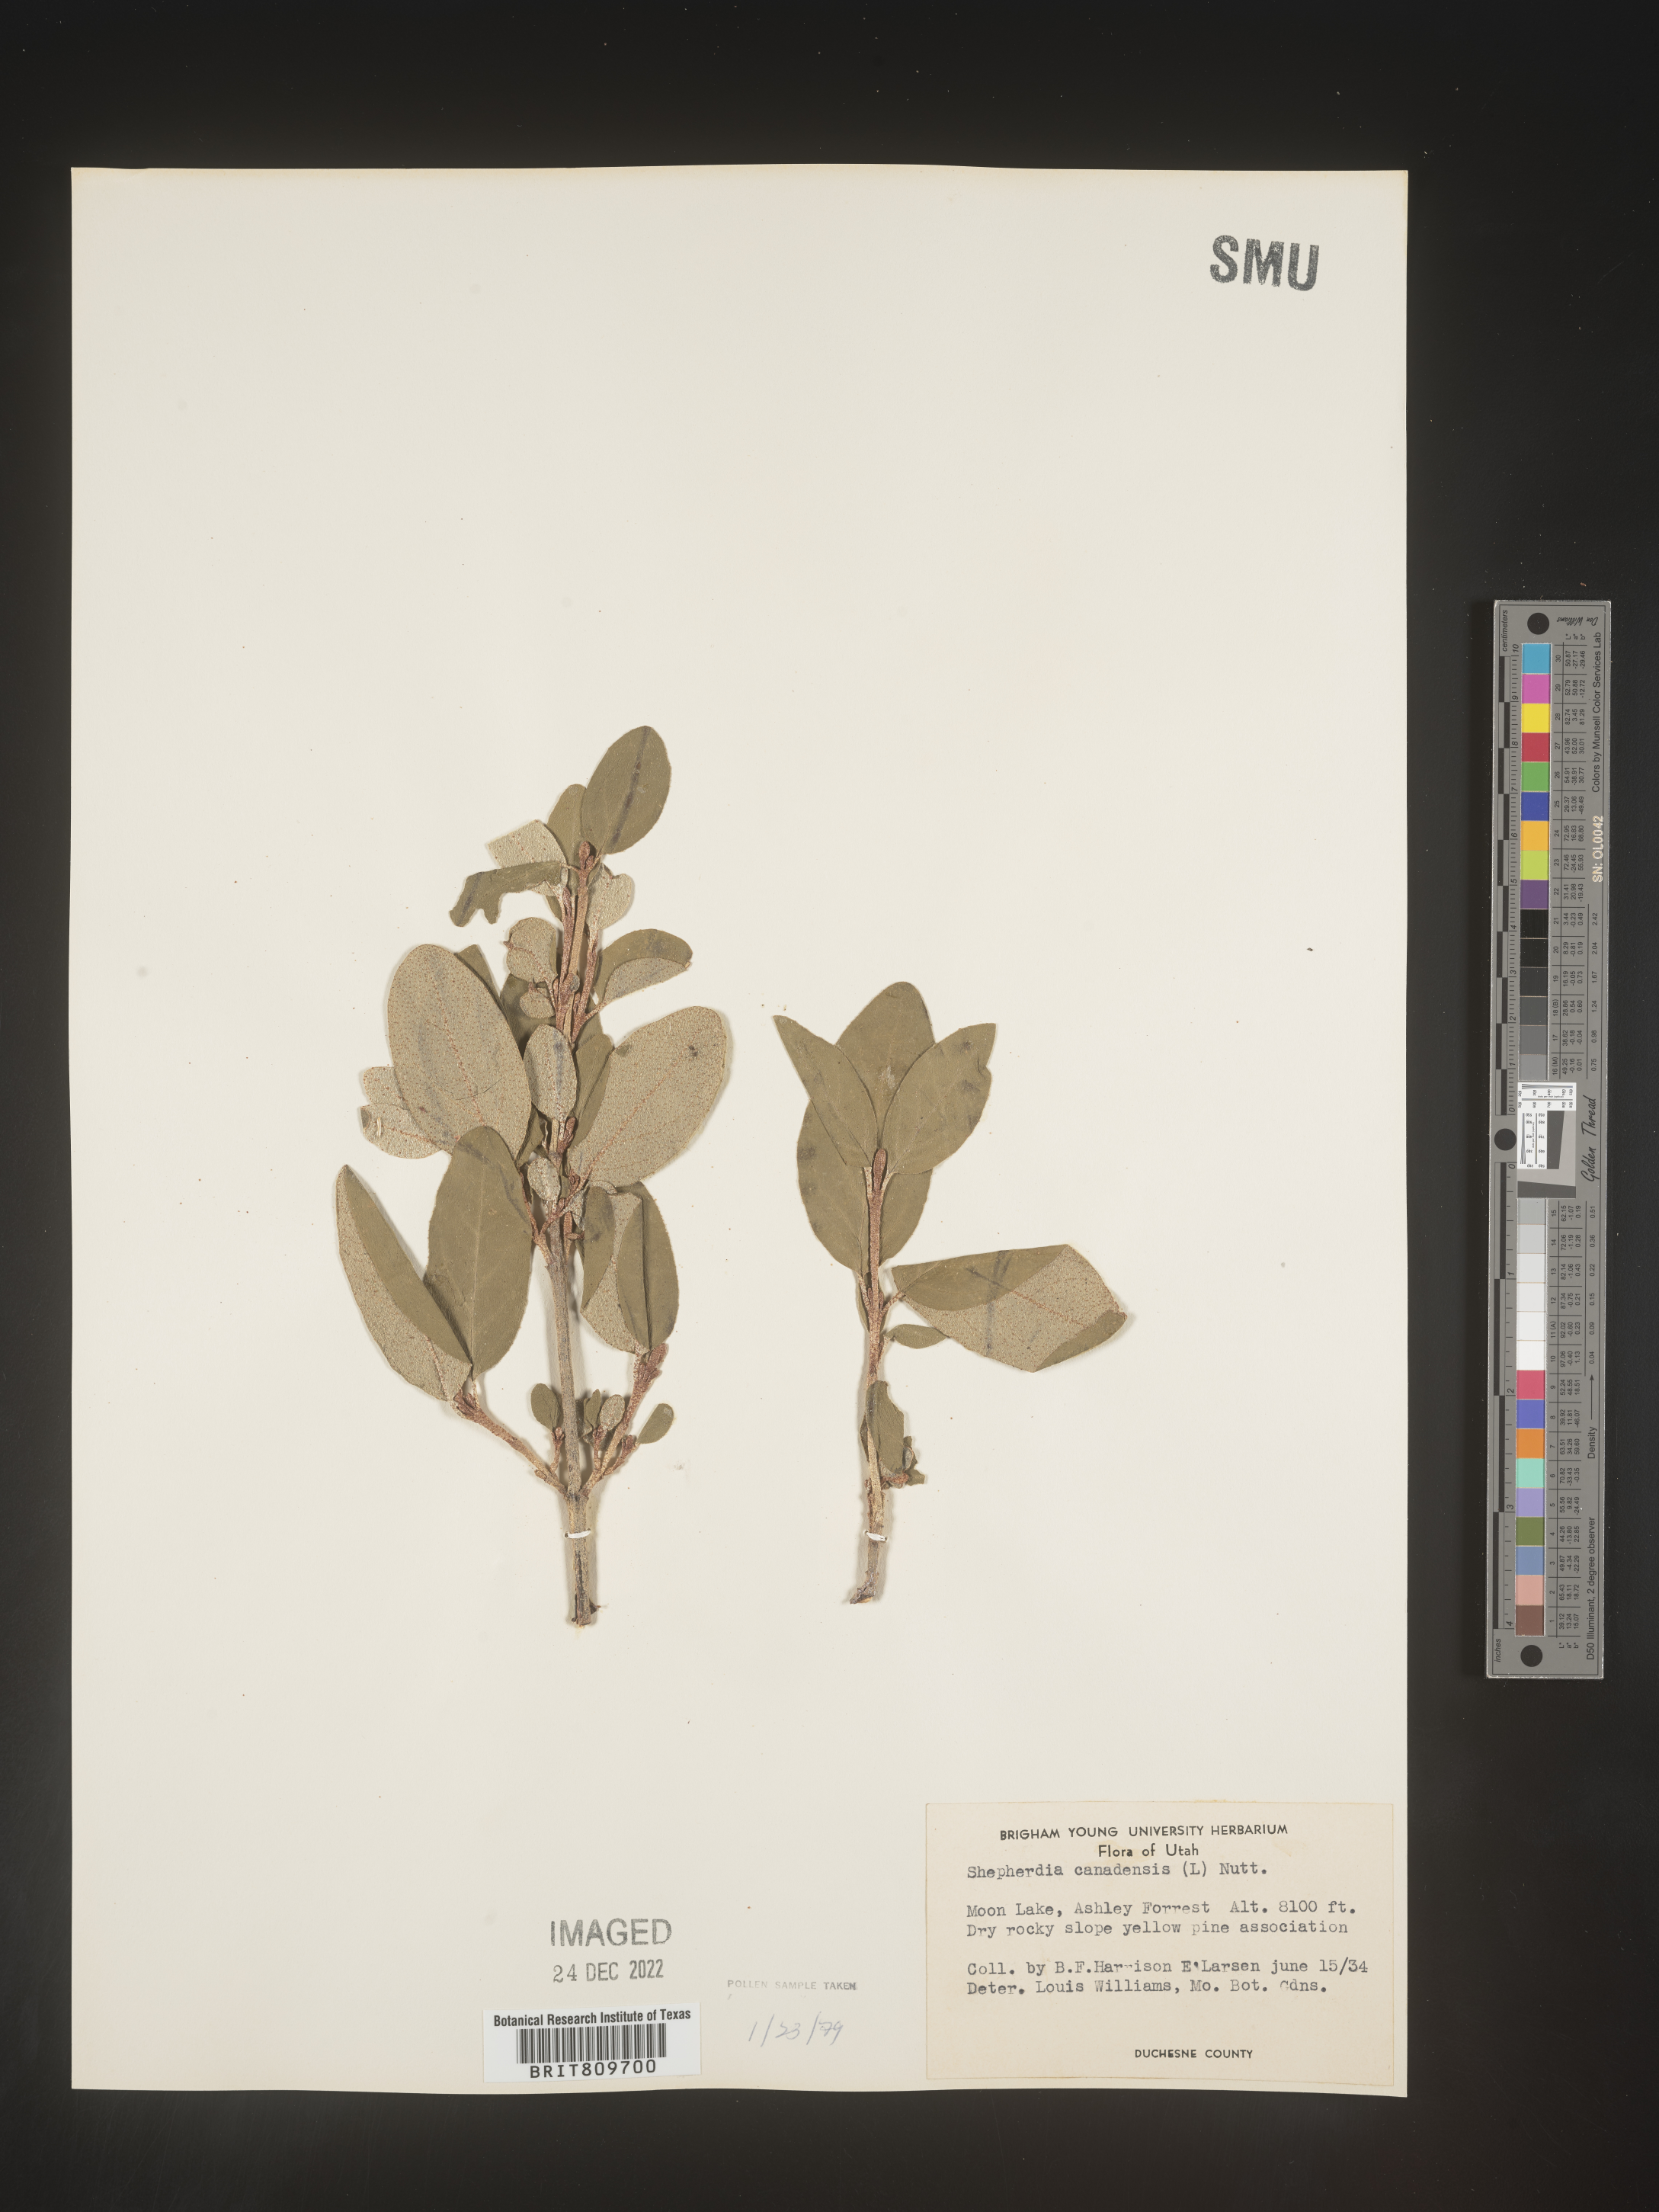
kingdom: Plantae
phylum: Tracheophyta
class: Magnoliopsida
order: Rosales
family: Elaeagnaceae
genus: Shepherdia
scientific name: Shepherdia canadensis
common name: Soapberry
